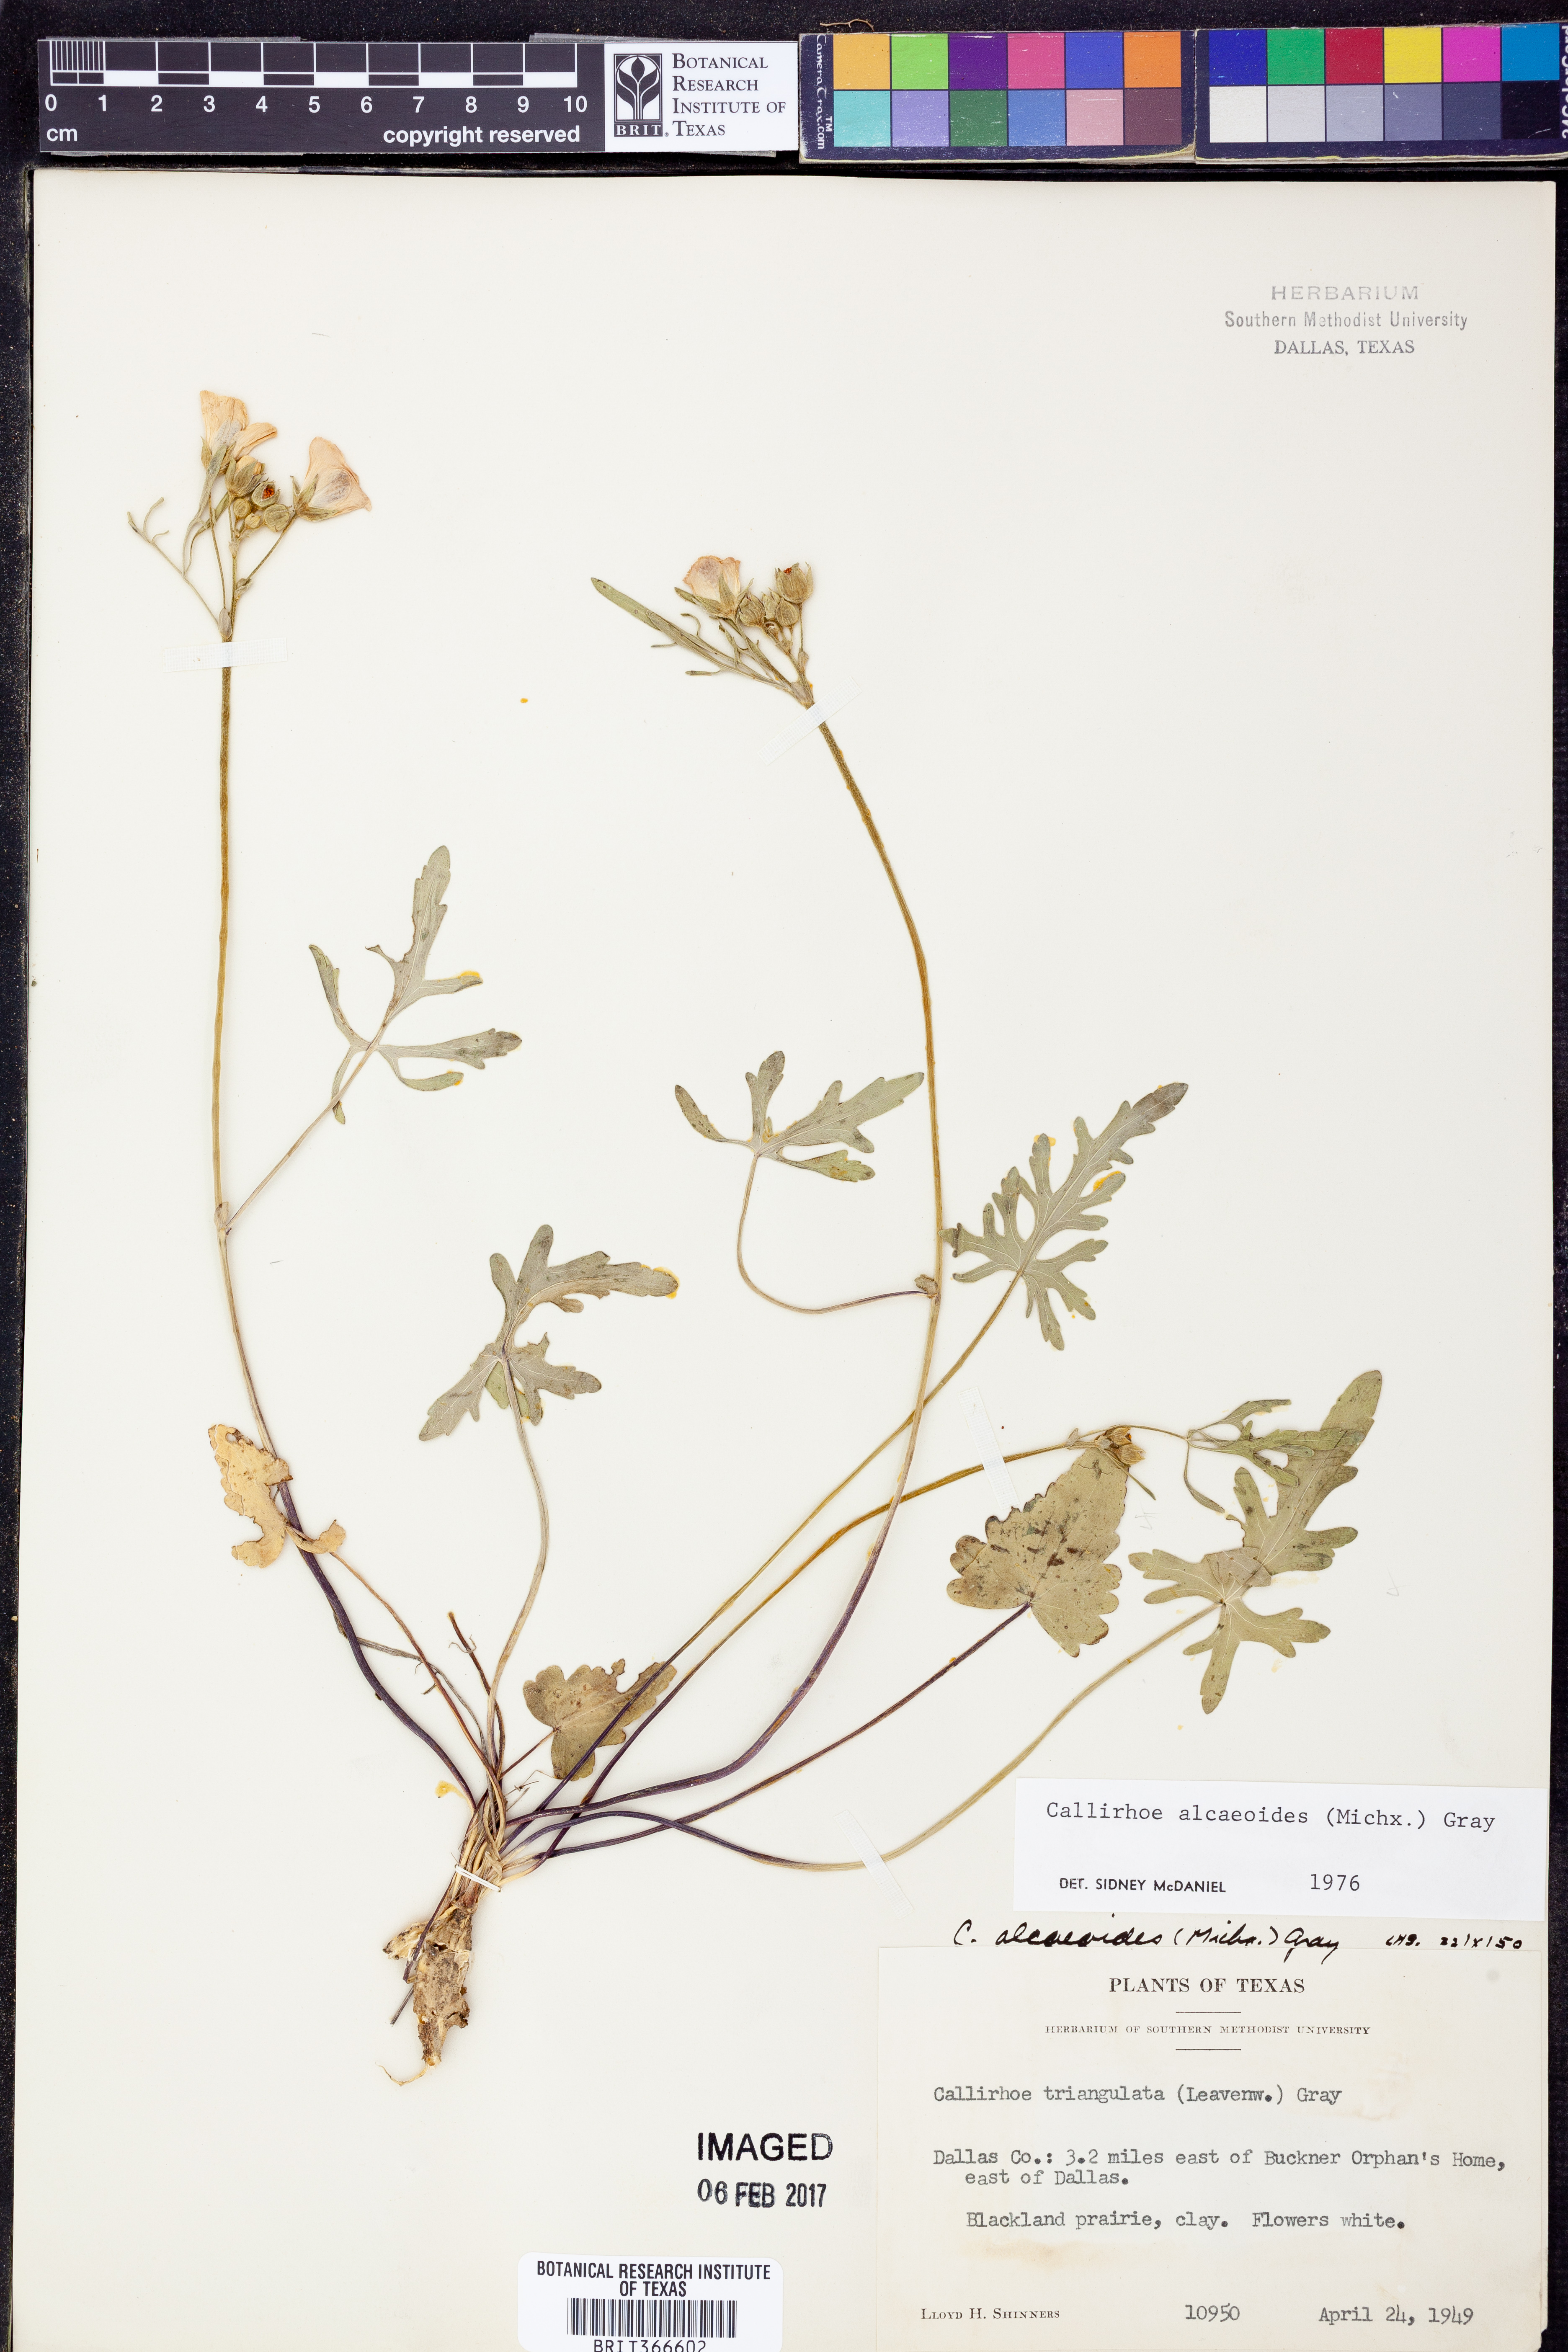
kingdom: Plantae
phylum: Tracheophyta
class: Magnoliopsida
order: Malvales
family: Malvaceae
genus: Callirhoe
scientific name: Callirhoe alcaeoides
